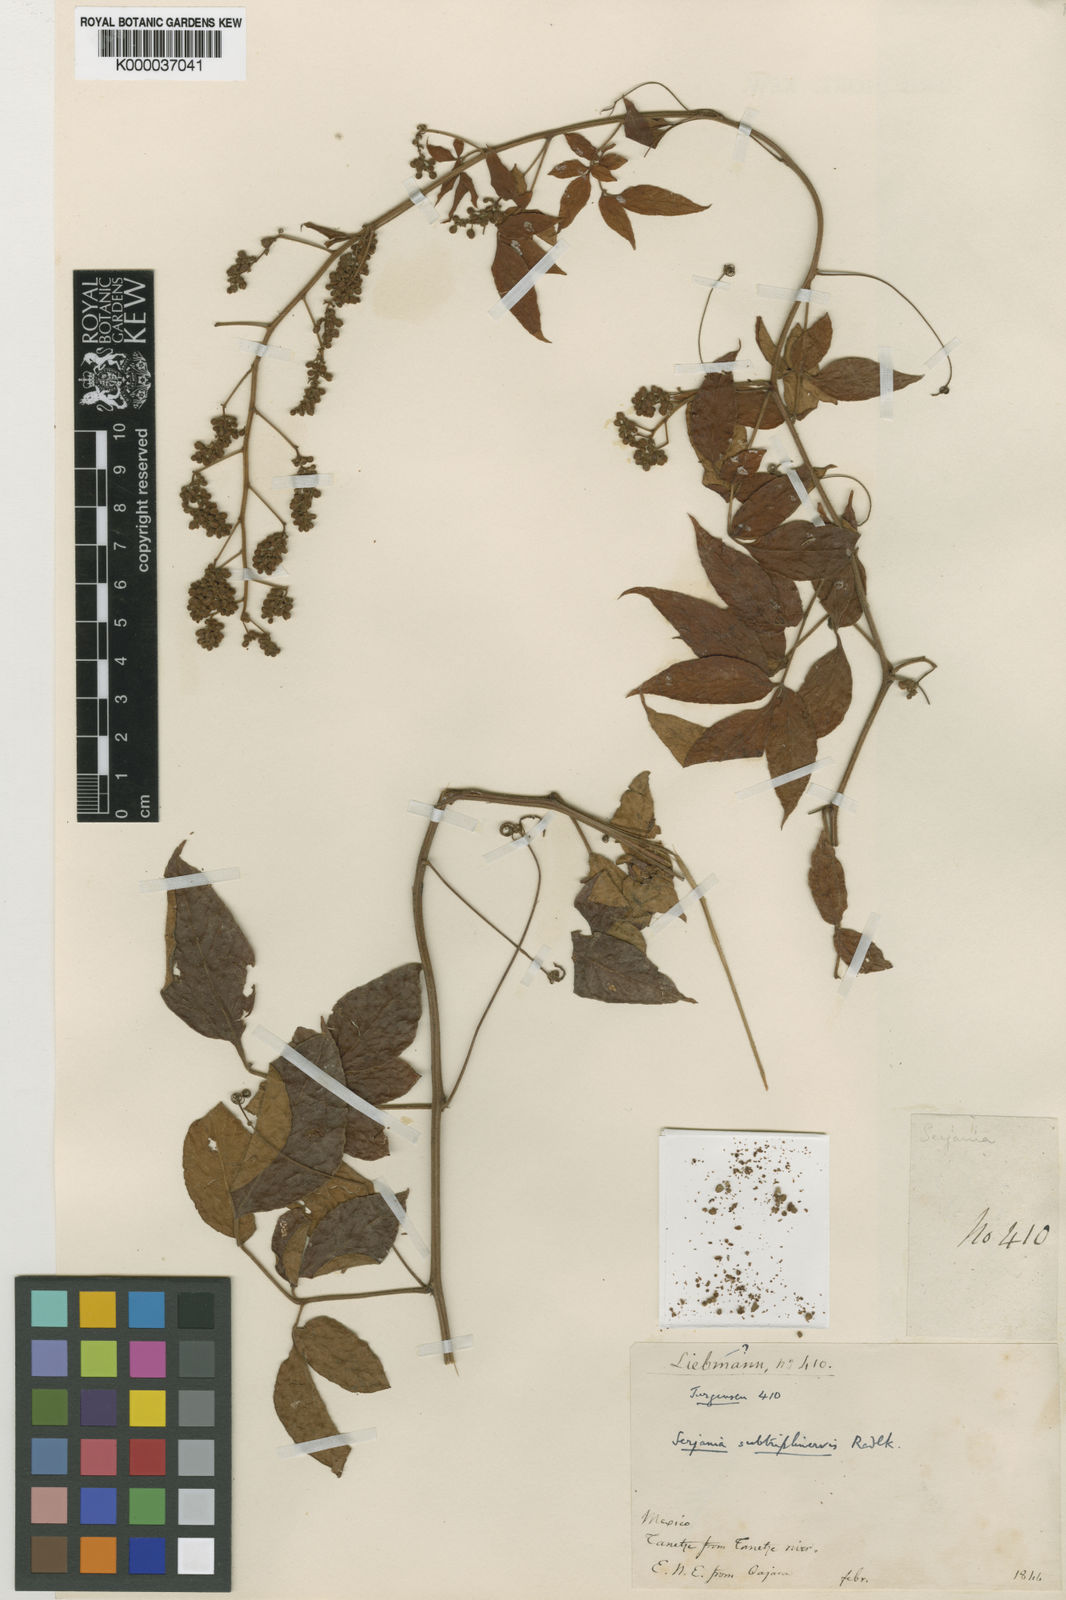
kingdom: Plantae
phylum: Tracheophyta
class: Magnoliopsida
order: Sapindales
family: Sapindaceae
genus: Serjania
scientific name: Serjania subtriplinervis
